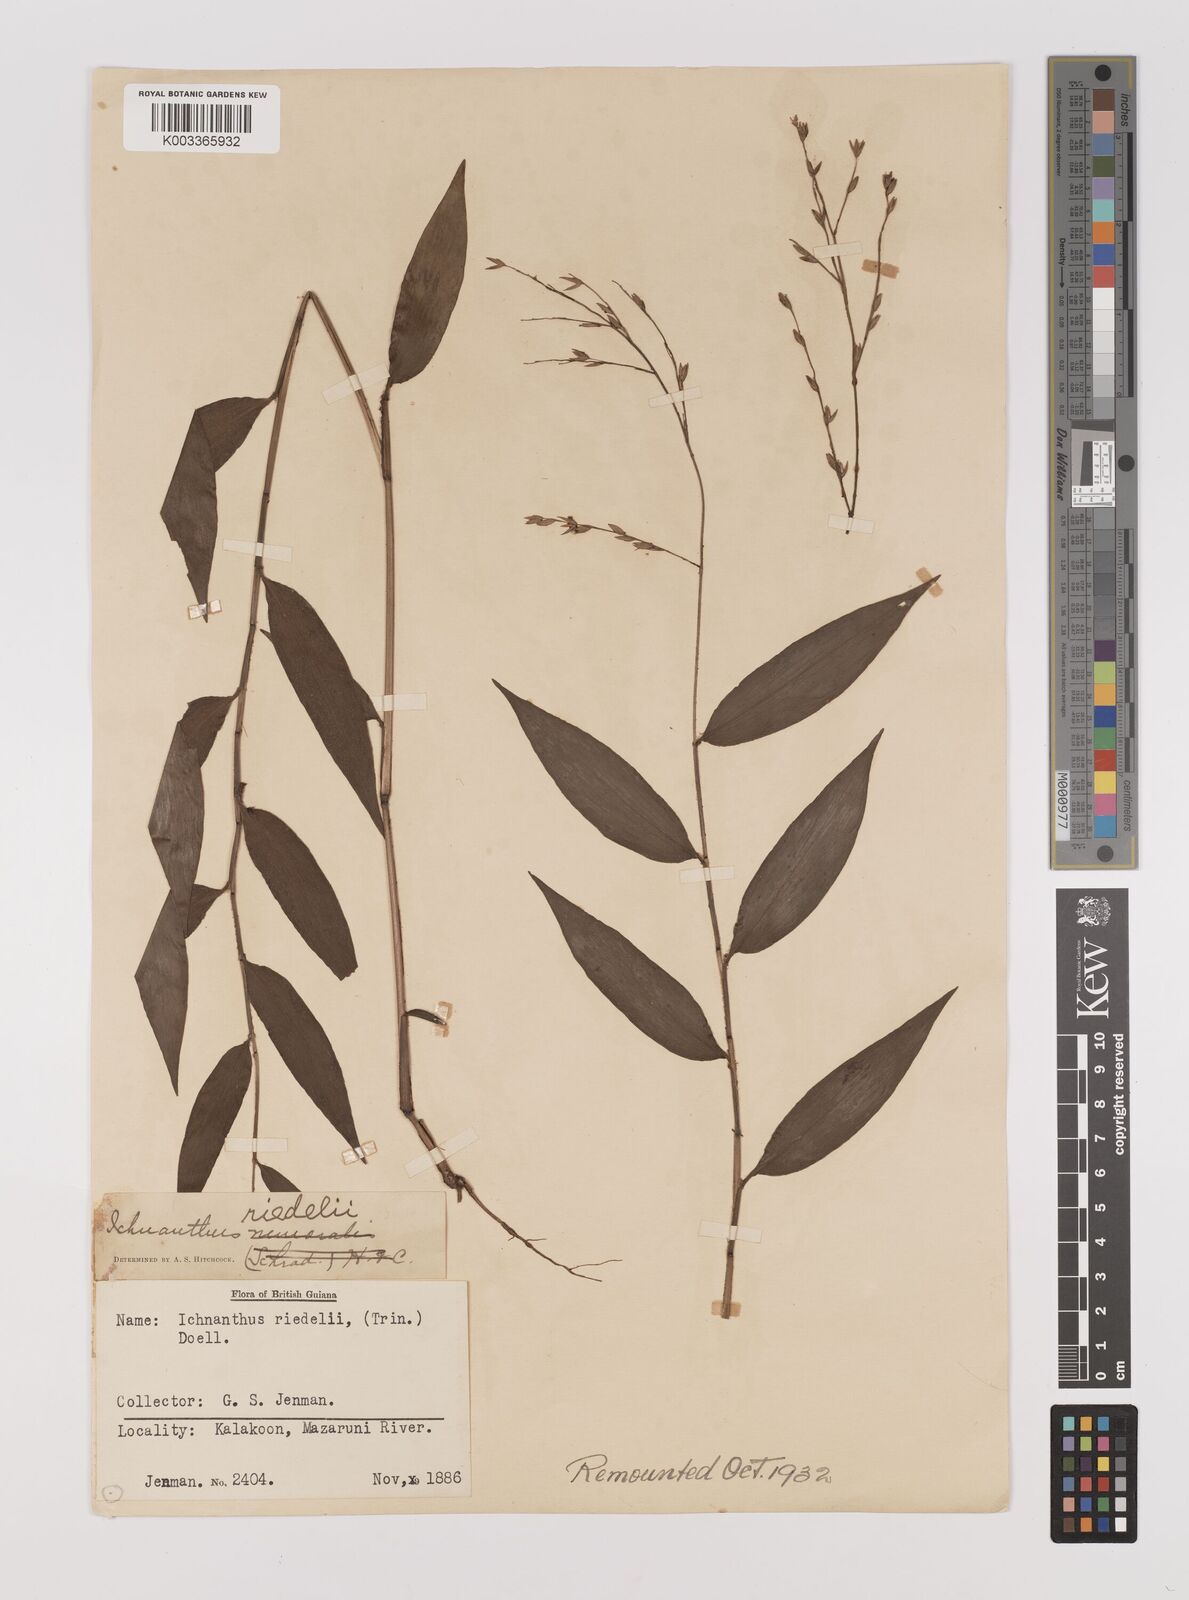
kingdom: Plantae
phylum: Tracheophyta
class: Liliopsida
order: Poales
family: Poaceae
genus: Ichnanthus
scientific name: Ichnanthus nemoralis
